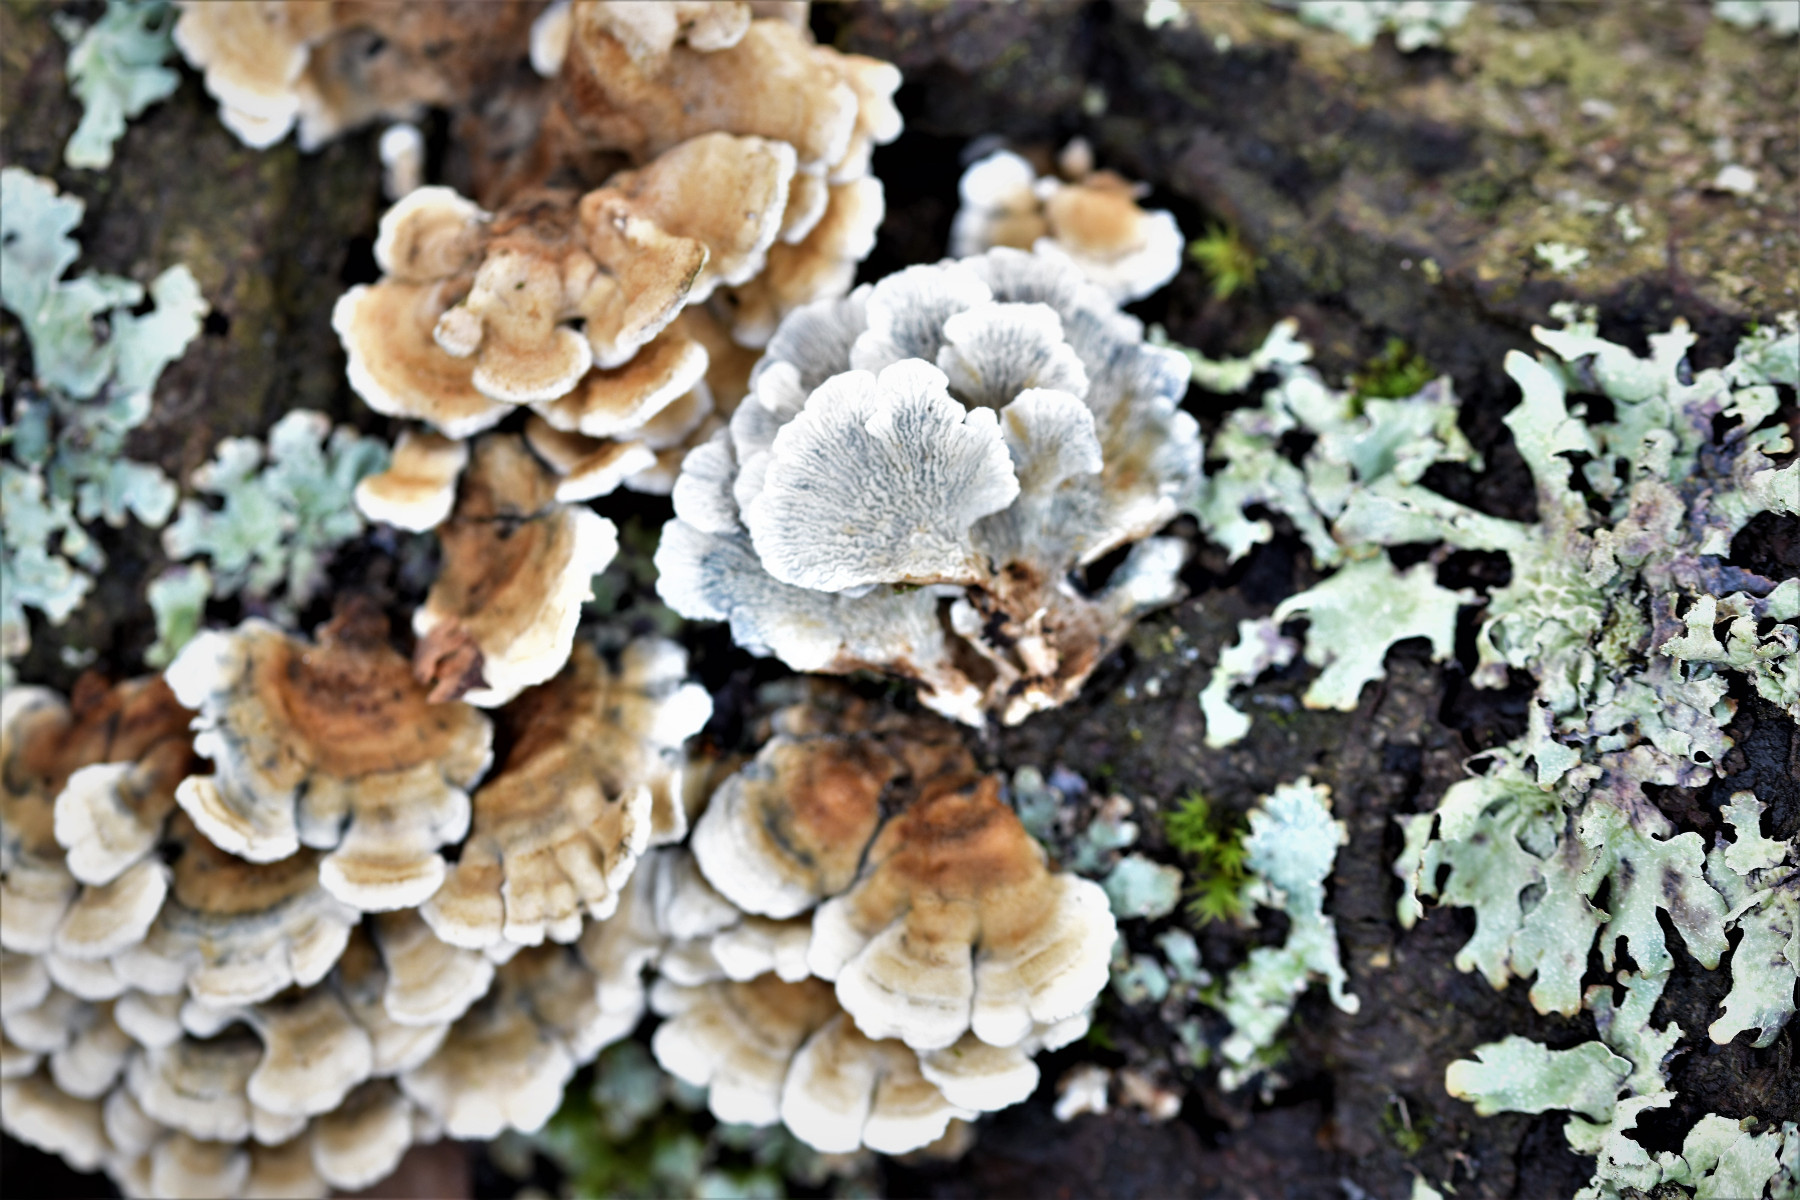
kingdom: Fungi
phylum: Basidiomycota
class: Agaricomycetes
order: Amylocorticiales
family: Amylocorticiaceae
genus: Plicaturopsis
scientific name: Plicaturopsis crispa
